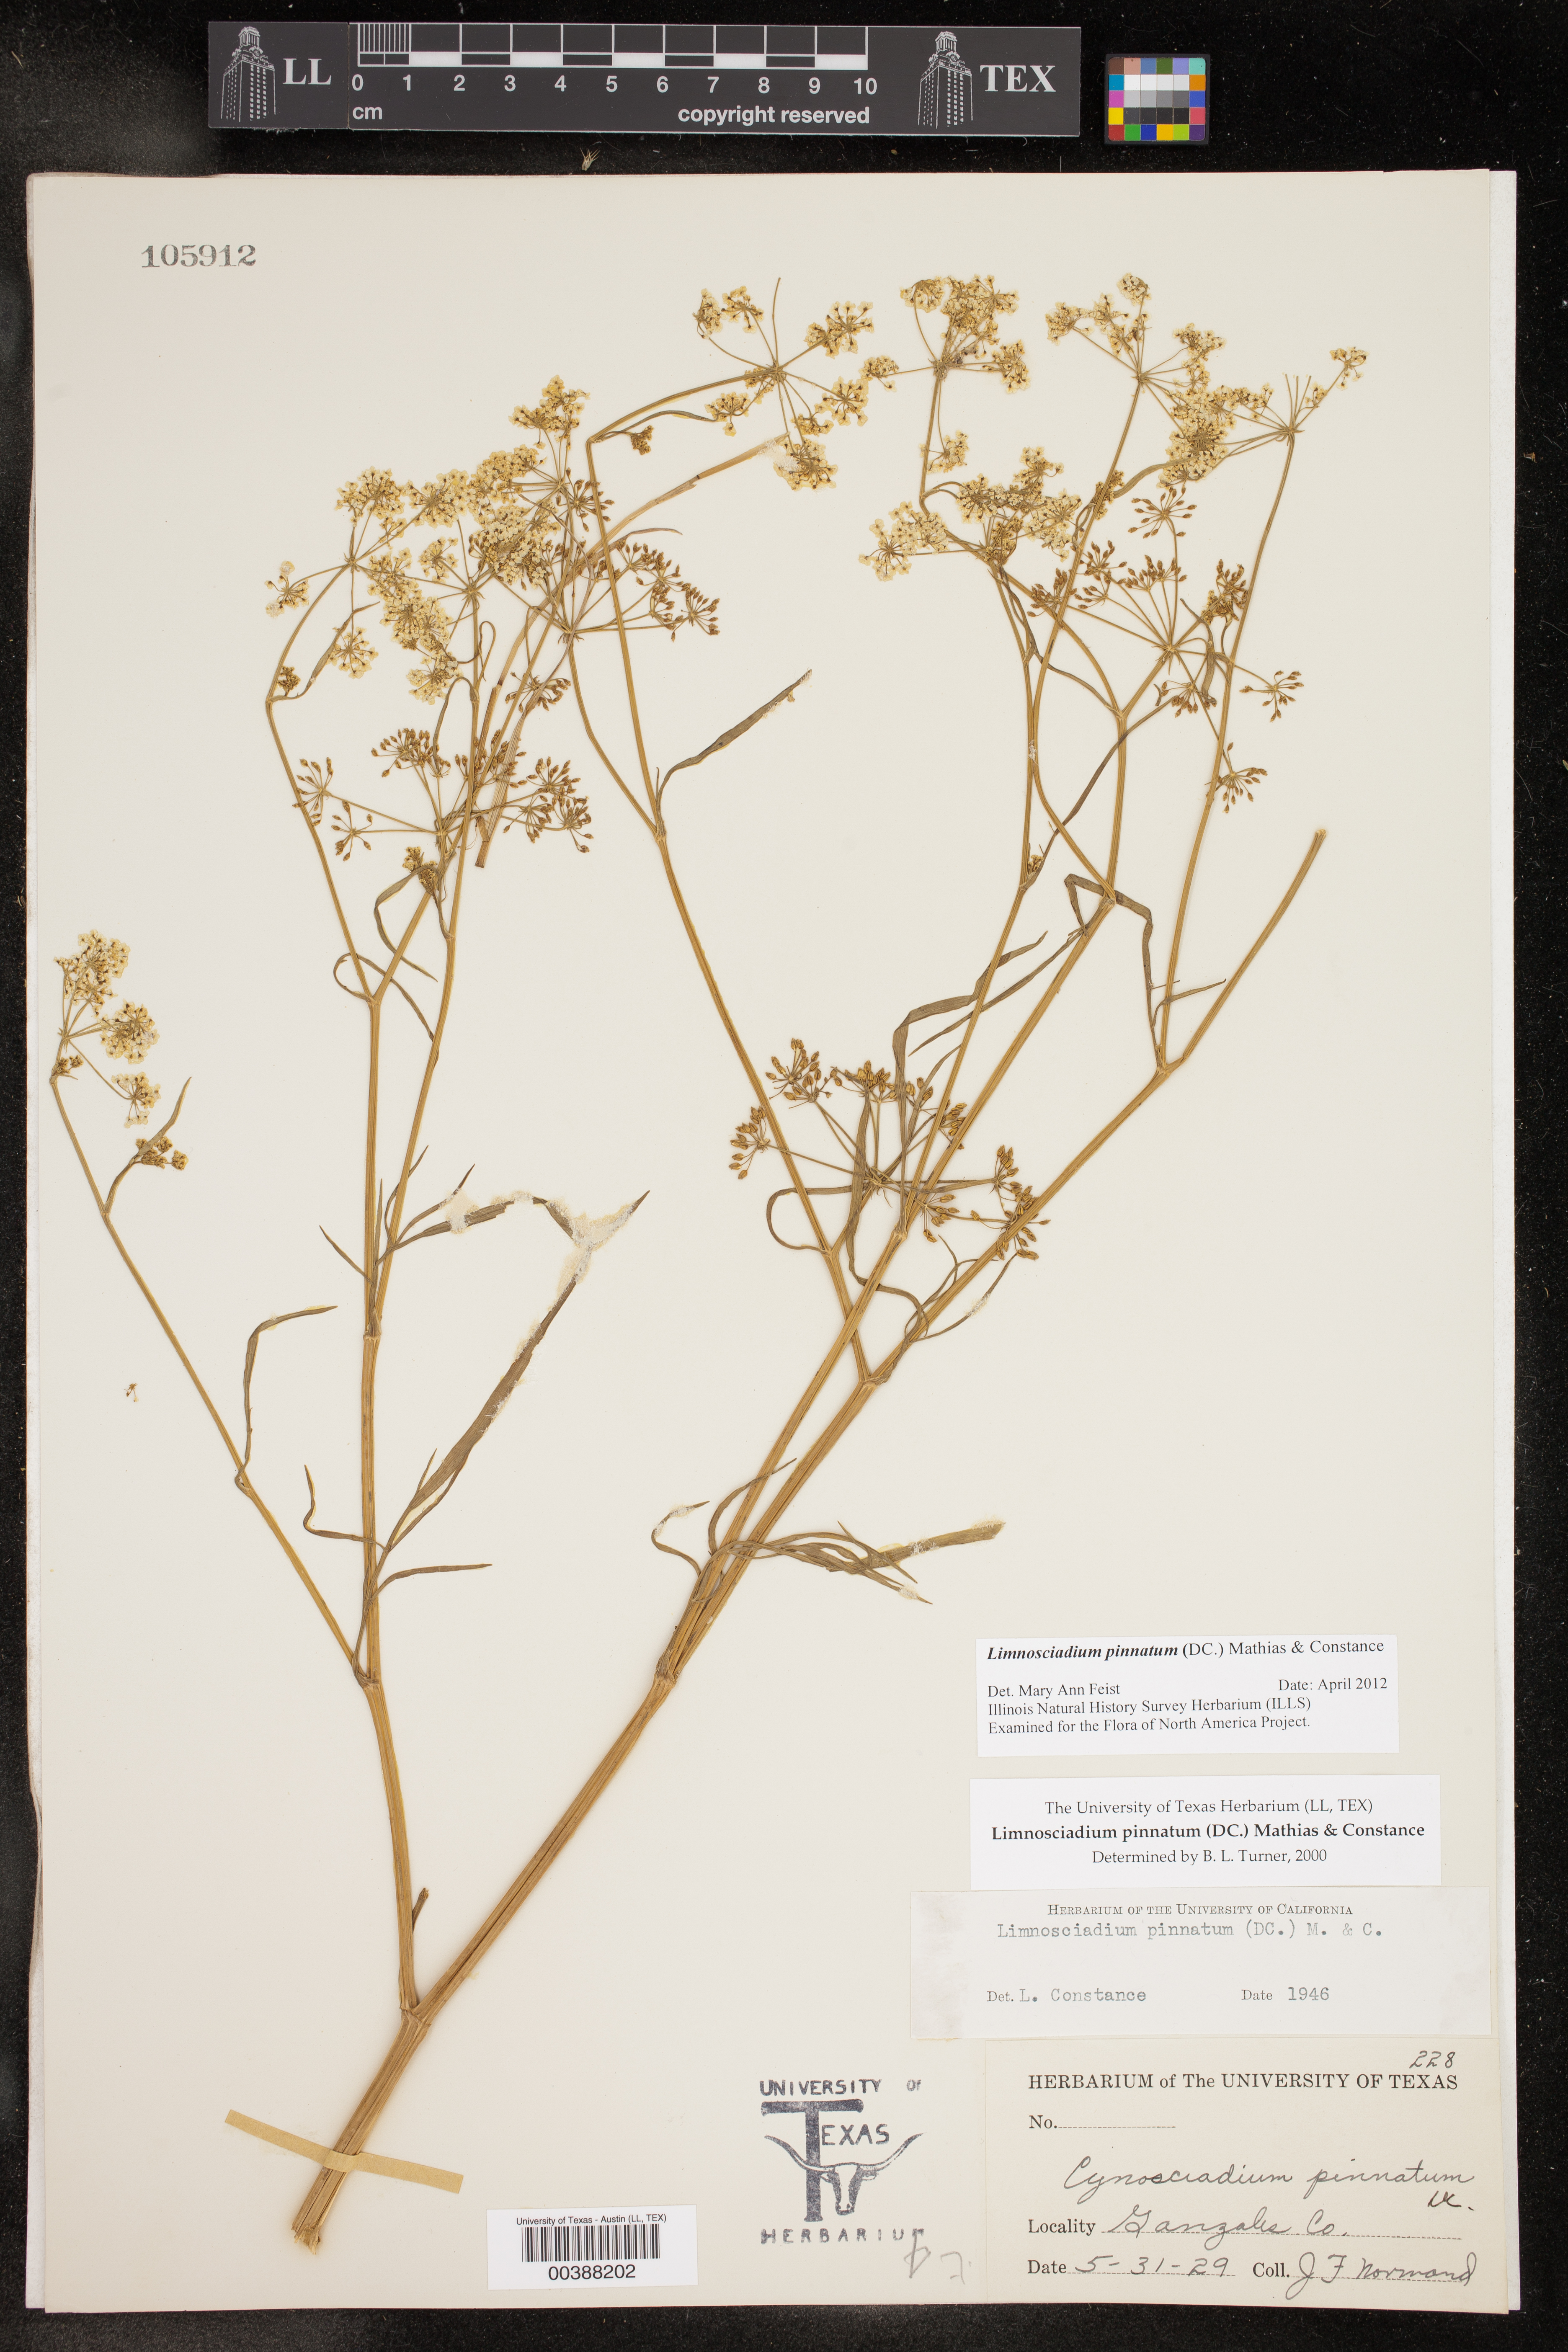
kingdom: Plantae
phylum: Tracheophyta
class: Magnoliopsida
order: Apiales
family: Apiaceae
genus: Limnosciadium
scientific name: Limnosciadium pinnatum
